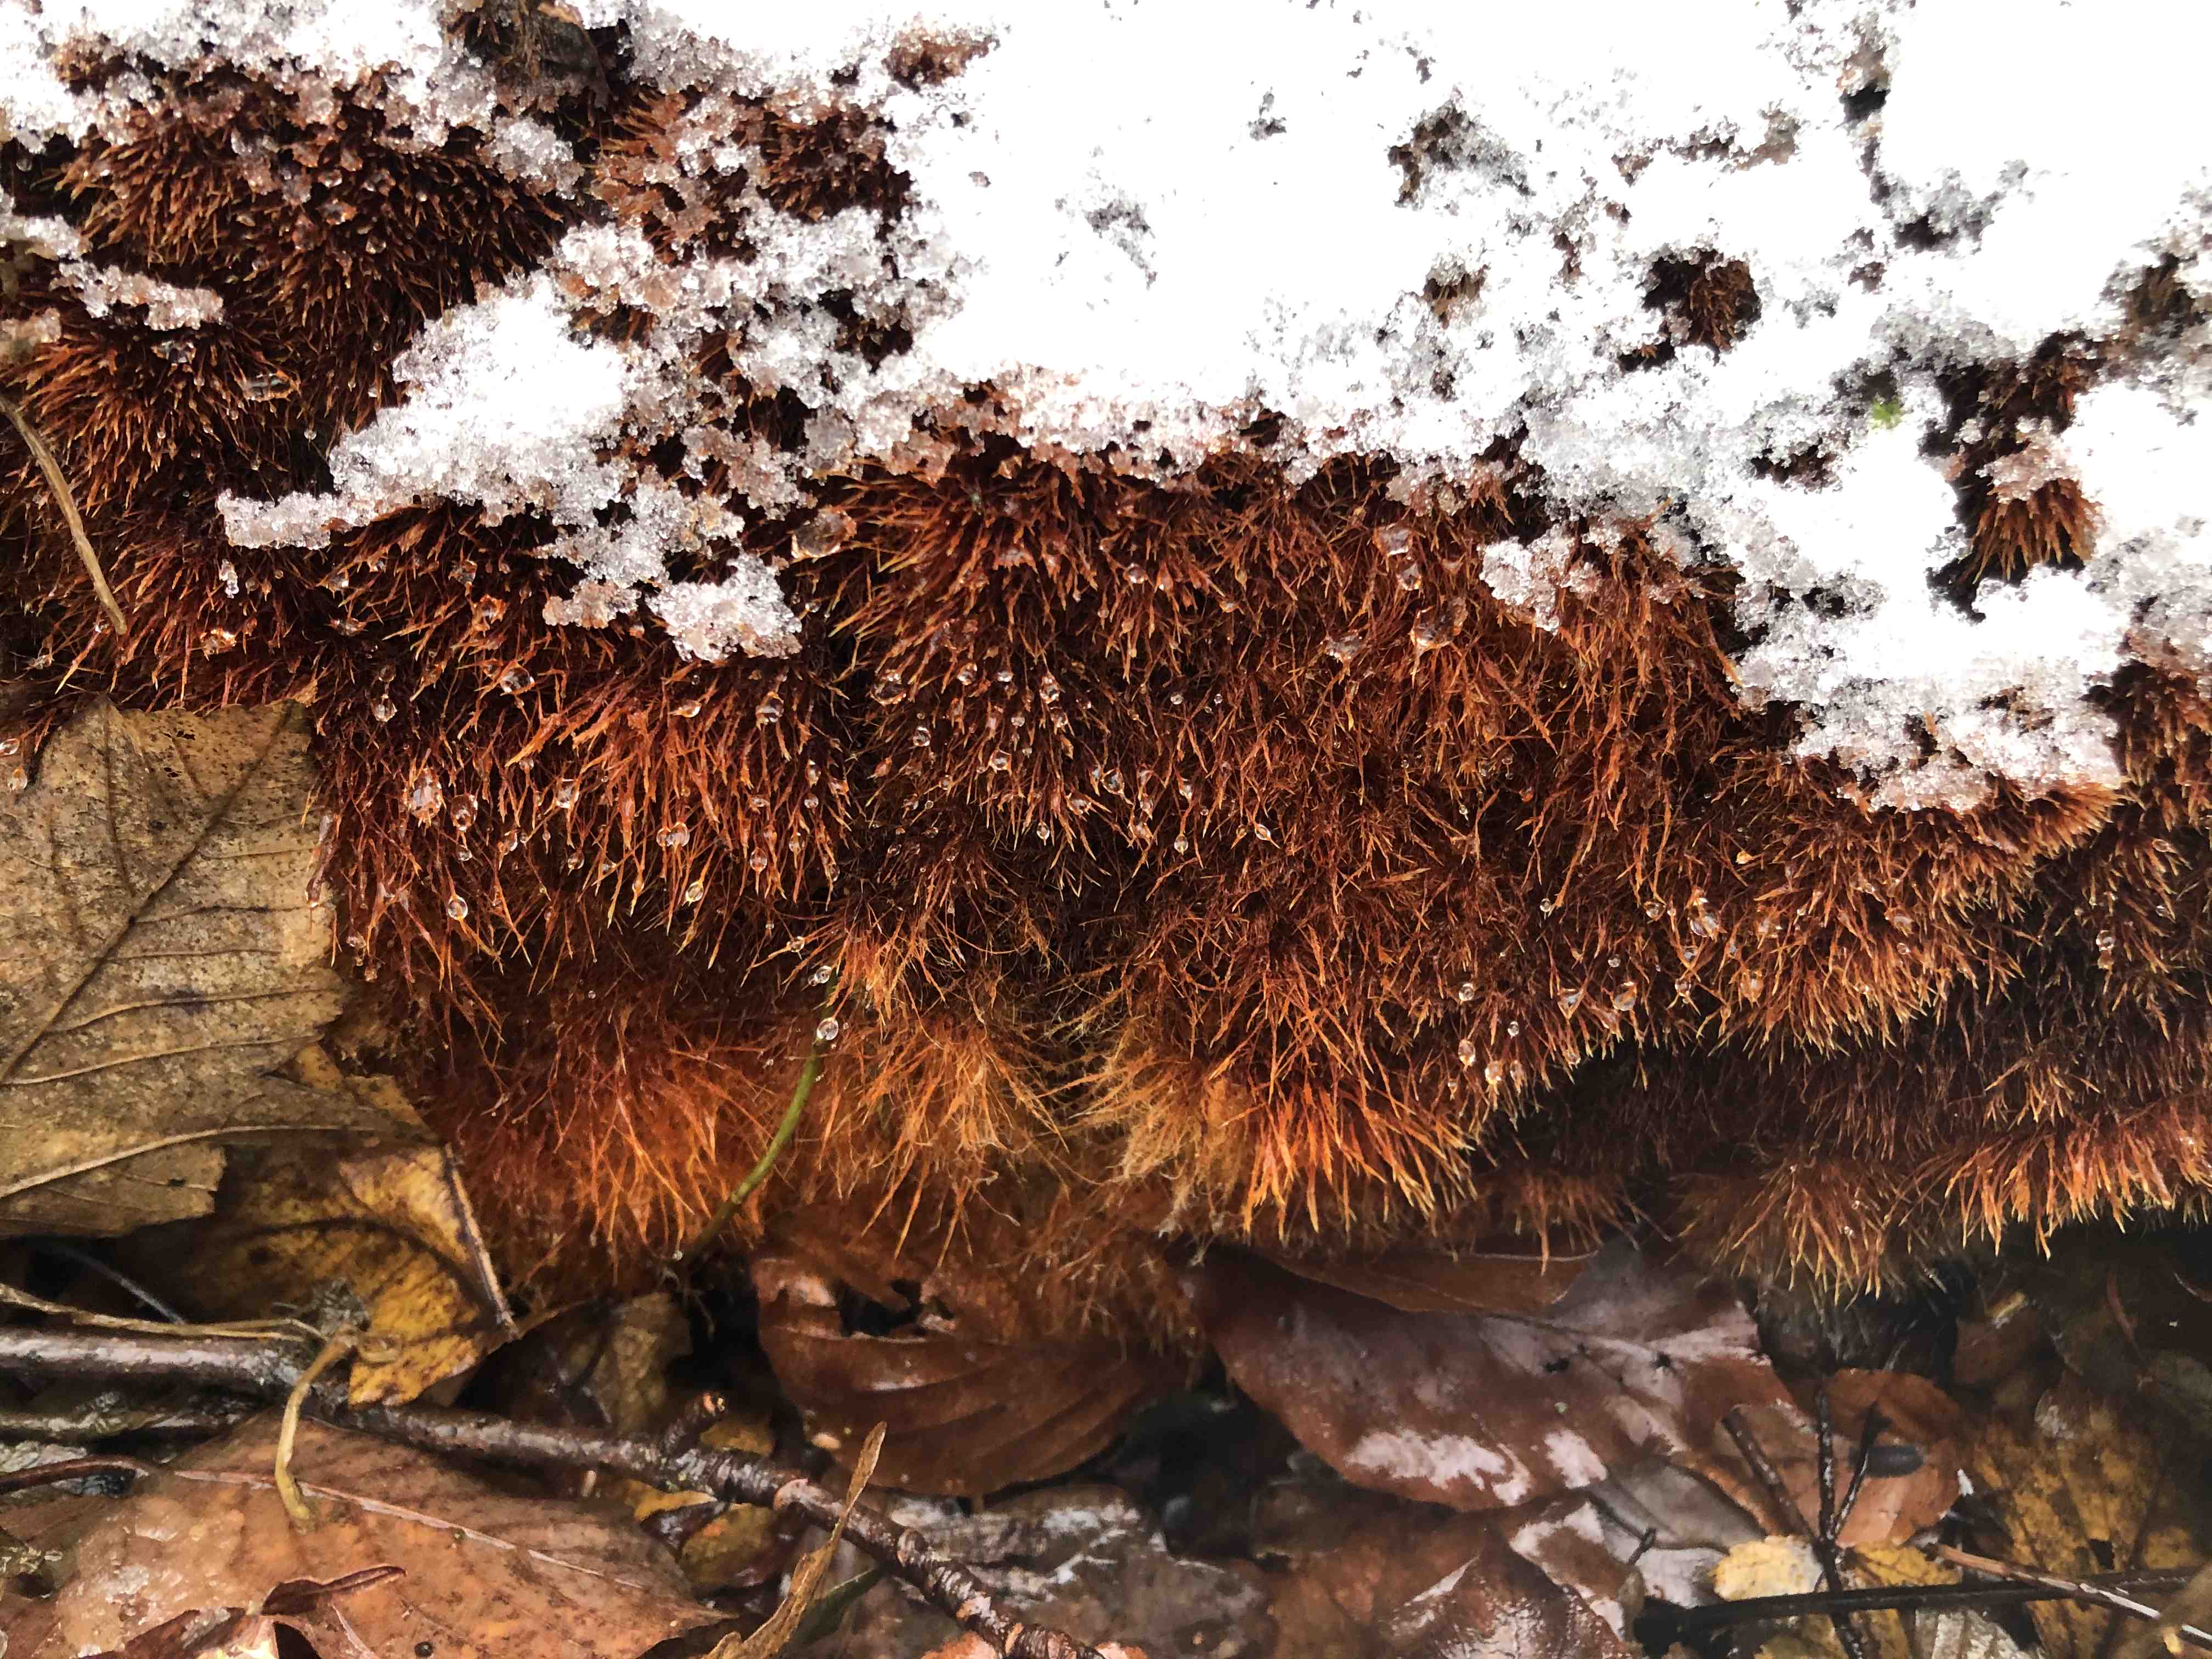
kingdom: Fungi
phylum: Basidiomycota
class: Agaricomycetes
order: Agaricales
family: Psathyrellaceae
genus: Ozonium
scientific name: Ozonium
